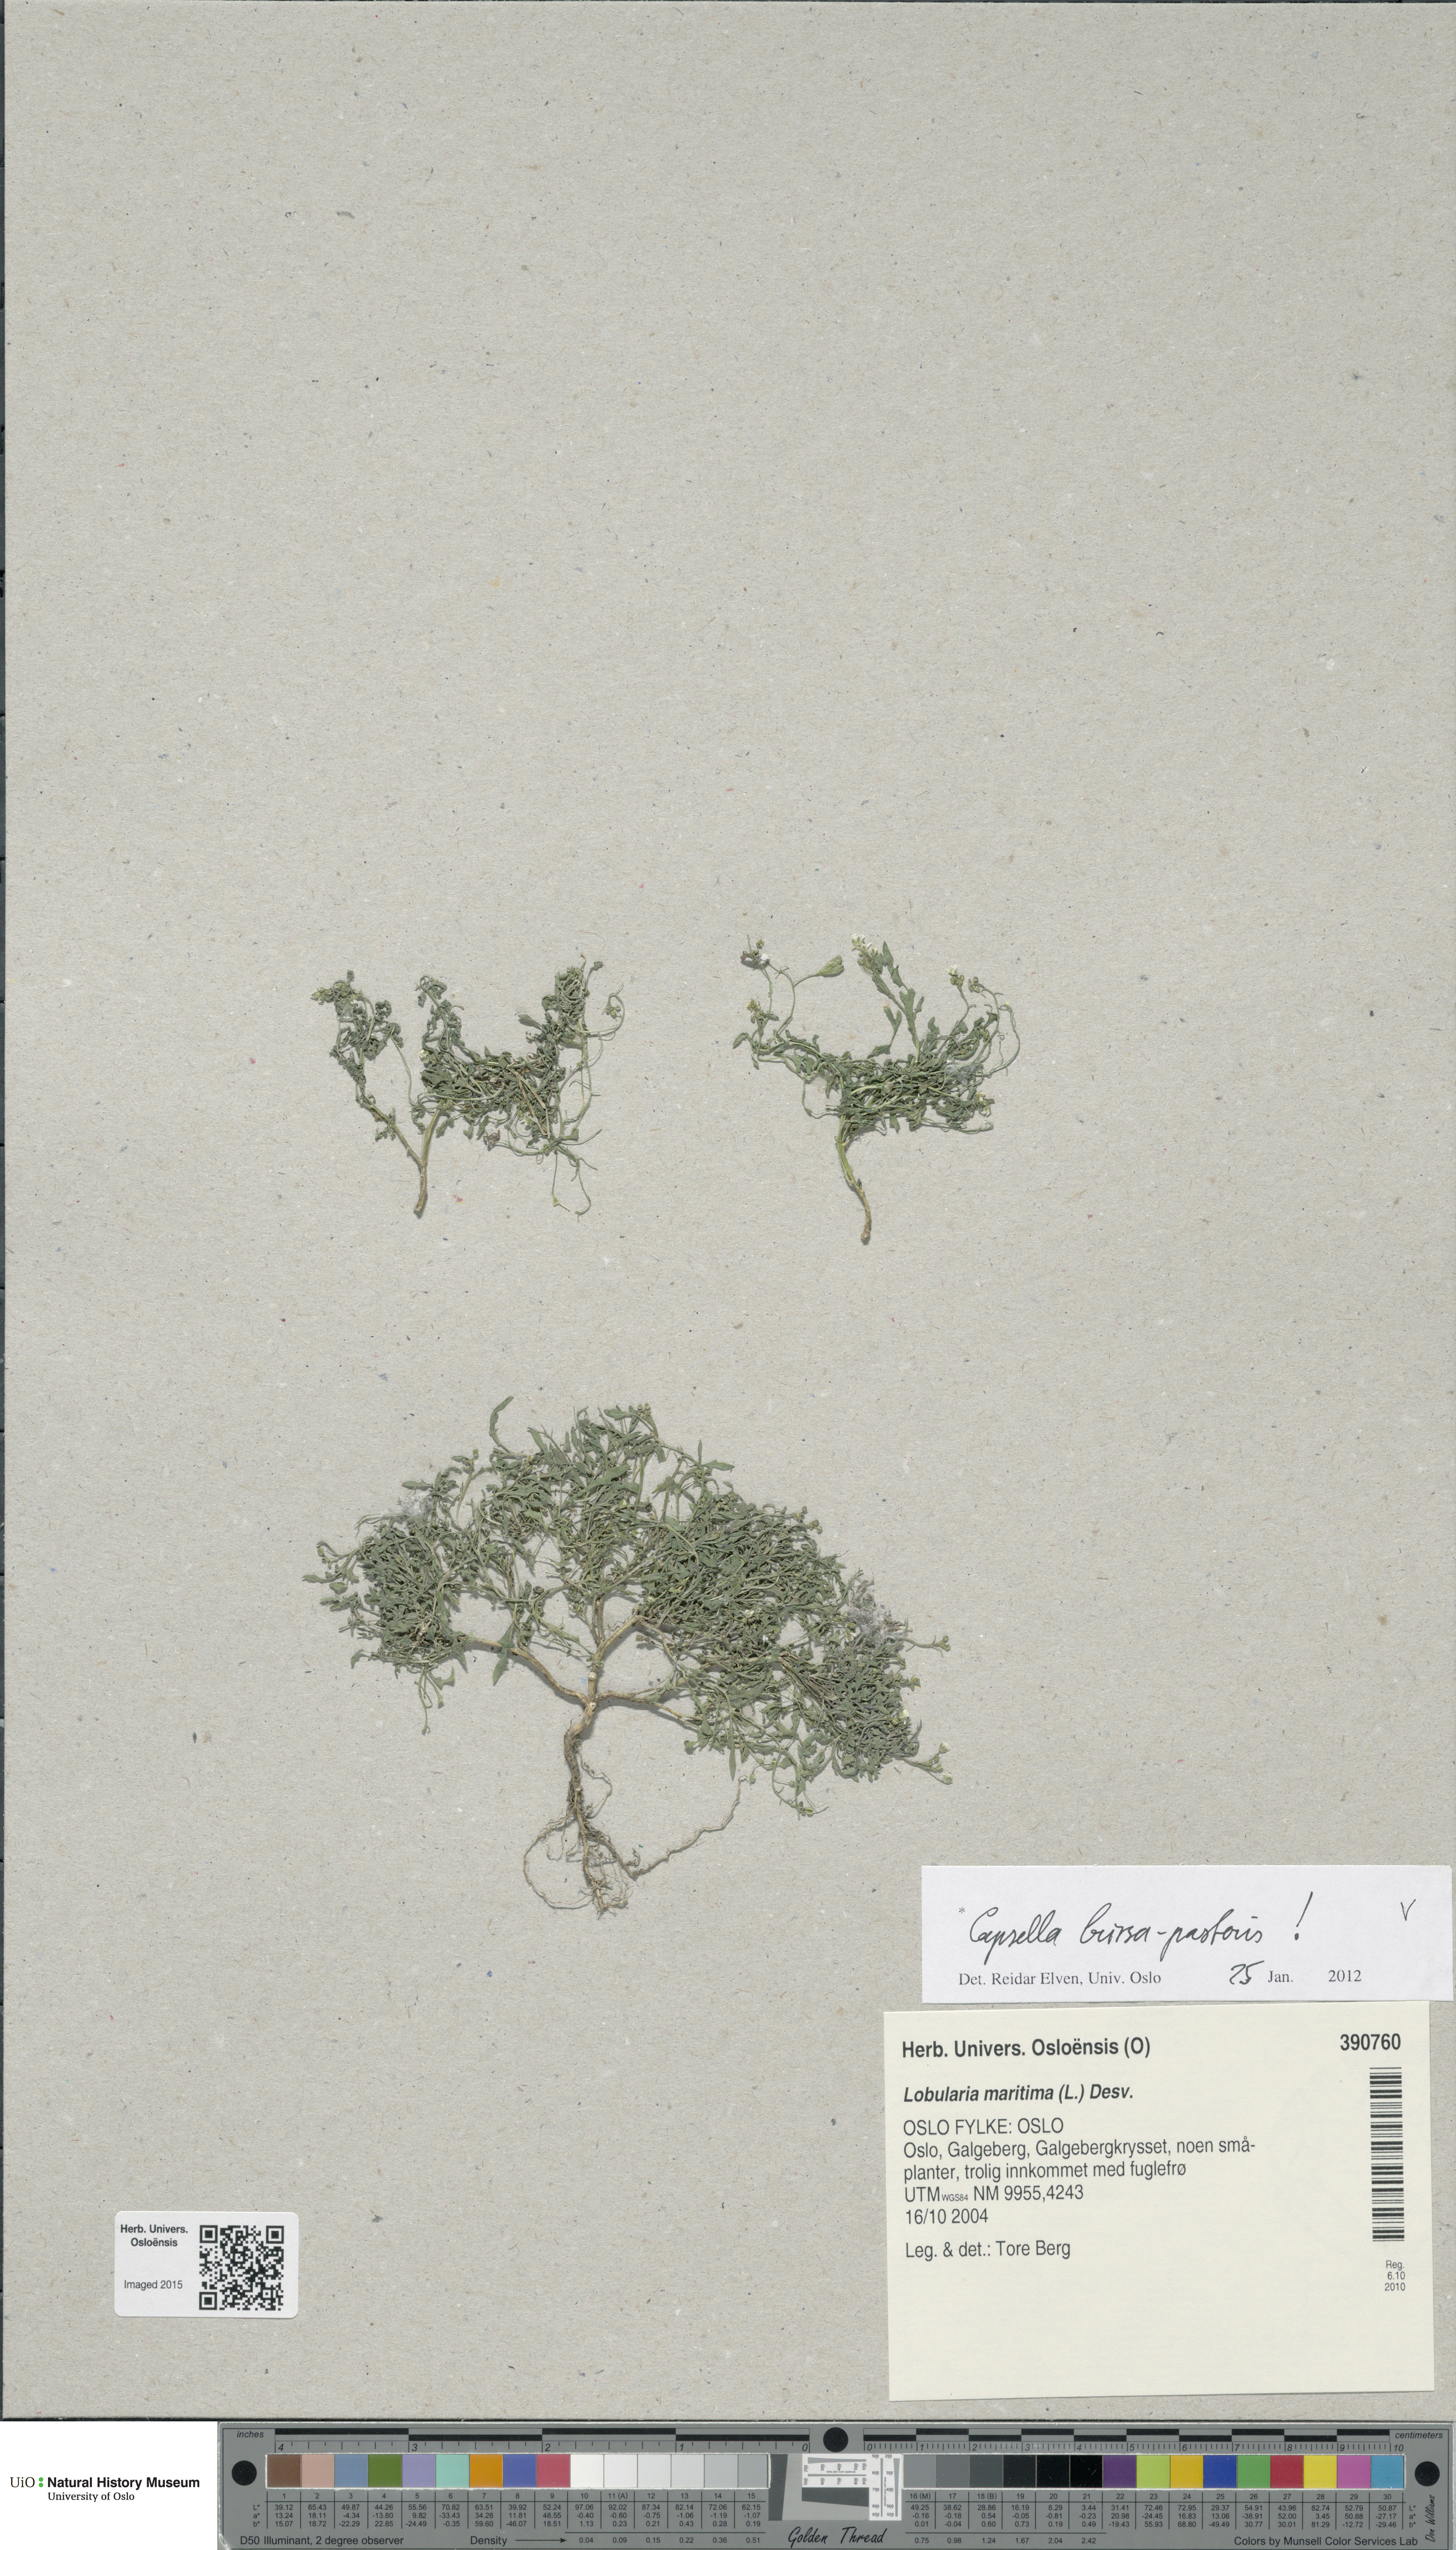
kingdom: Plantae
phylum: Tracheophyta
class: Magnoliopsida
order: Brassicales
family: Brassicaceae
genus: Capsella
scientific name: Capsella bursa-pastoris
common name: Shepherd's purse
